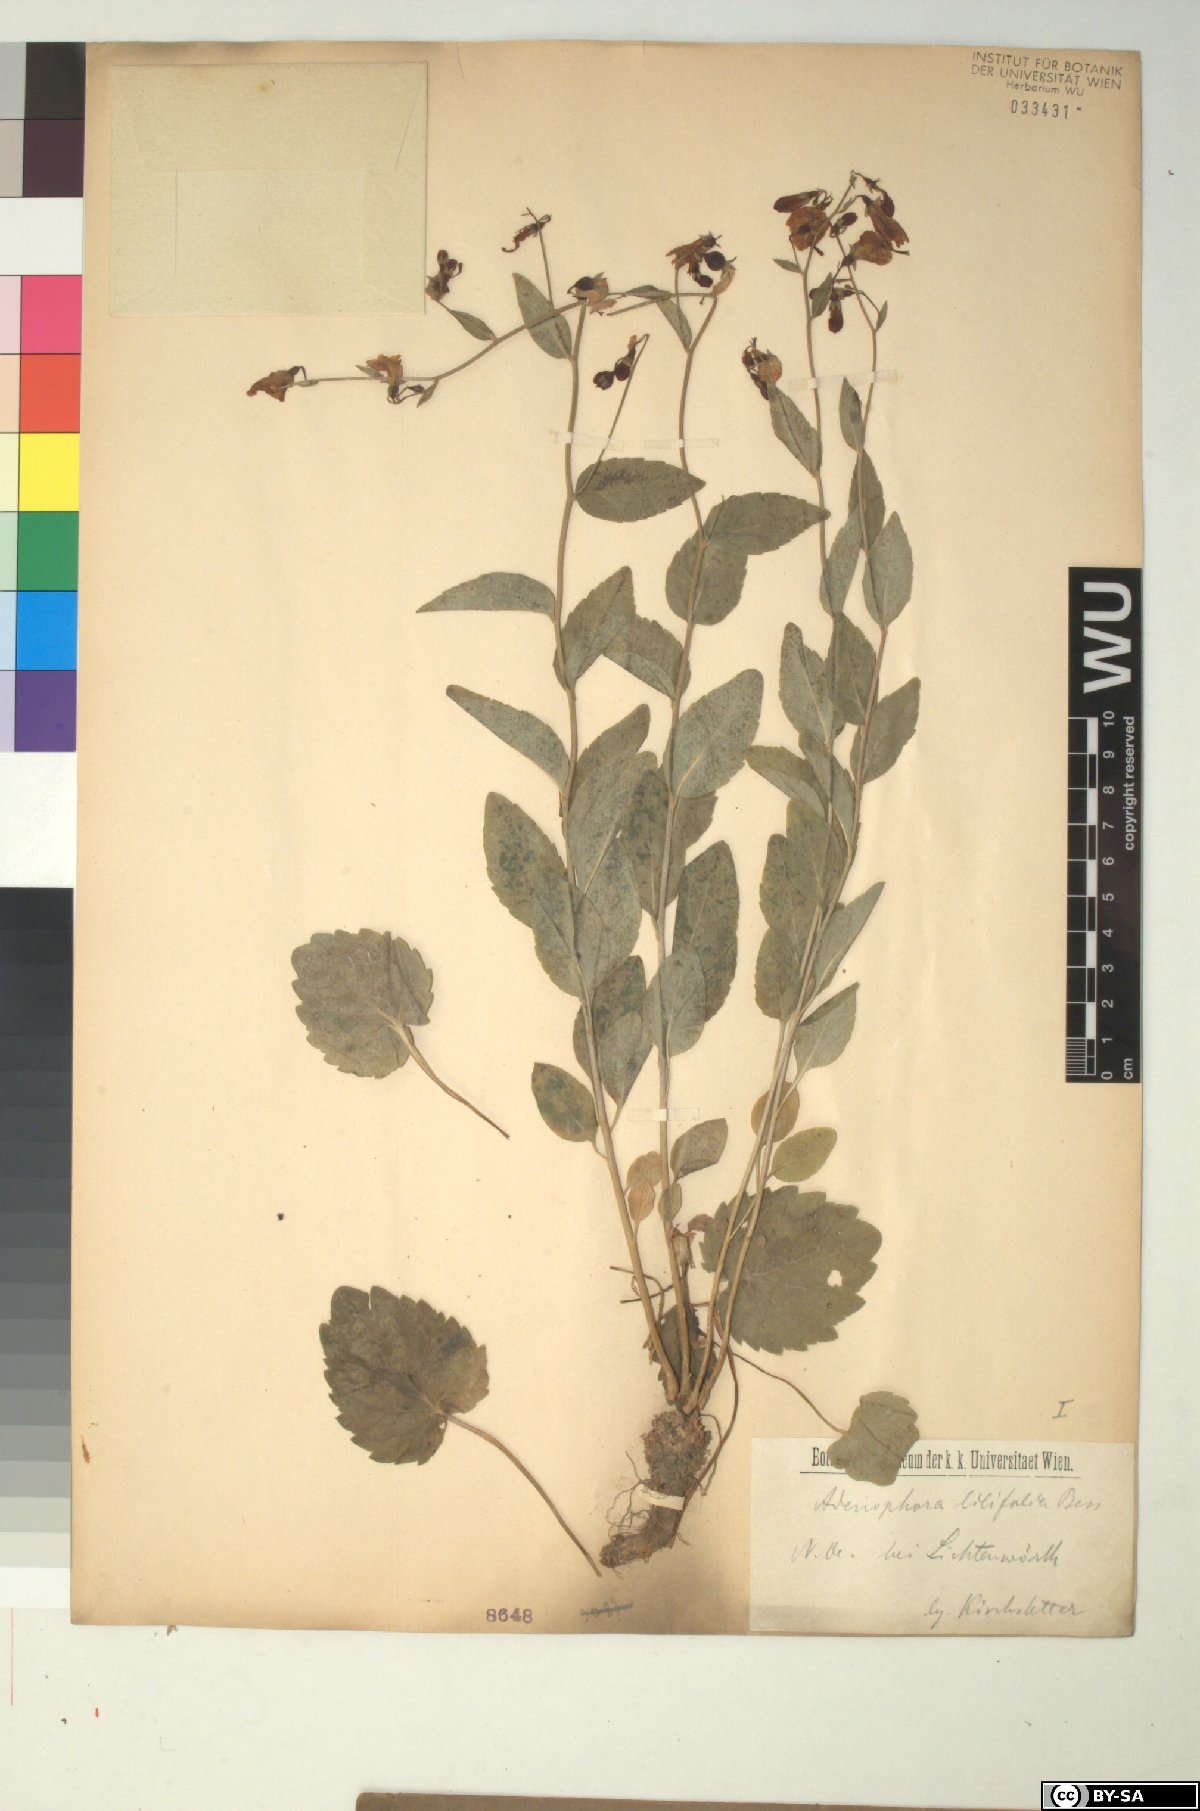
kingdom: Plantae
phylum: Tracheophyta
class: Magnoliopsida
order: Asterales
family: Campanulaceae
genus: Adenophora
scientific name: Adenophora liliifolia
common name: Lilyleaf ladybells
